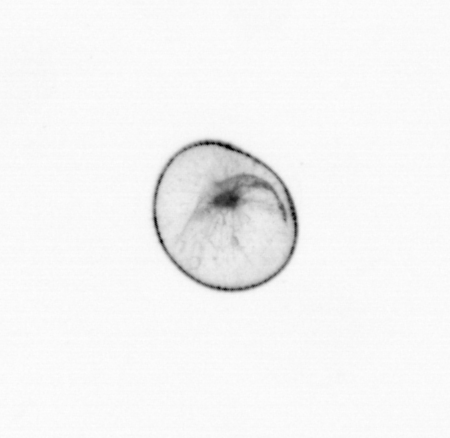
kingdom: Chromista
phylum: Myzozoa
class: Dinophyceae
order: Noctilucales
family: Noctilucaceae
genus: Noctiluca
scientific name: Noctiluca scintillans
